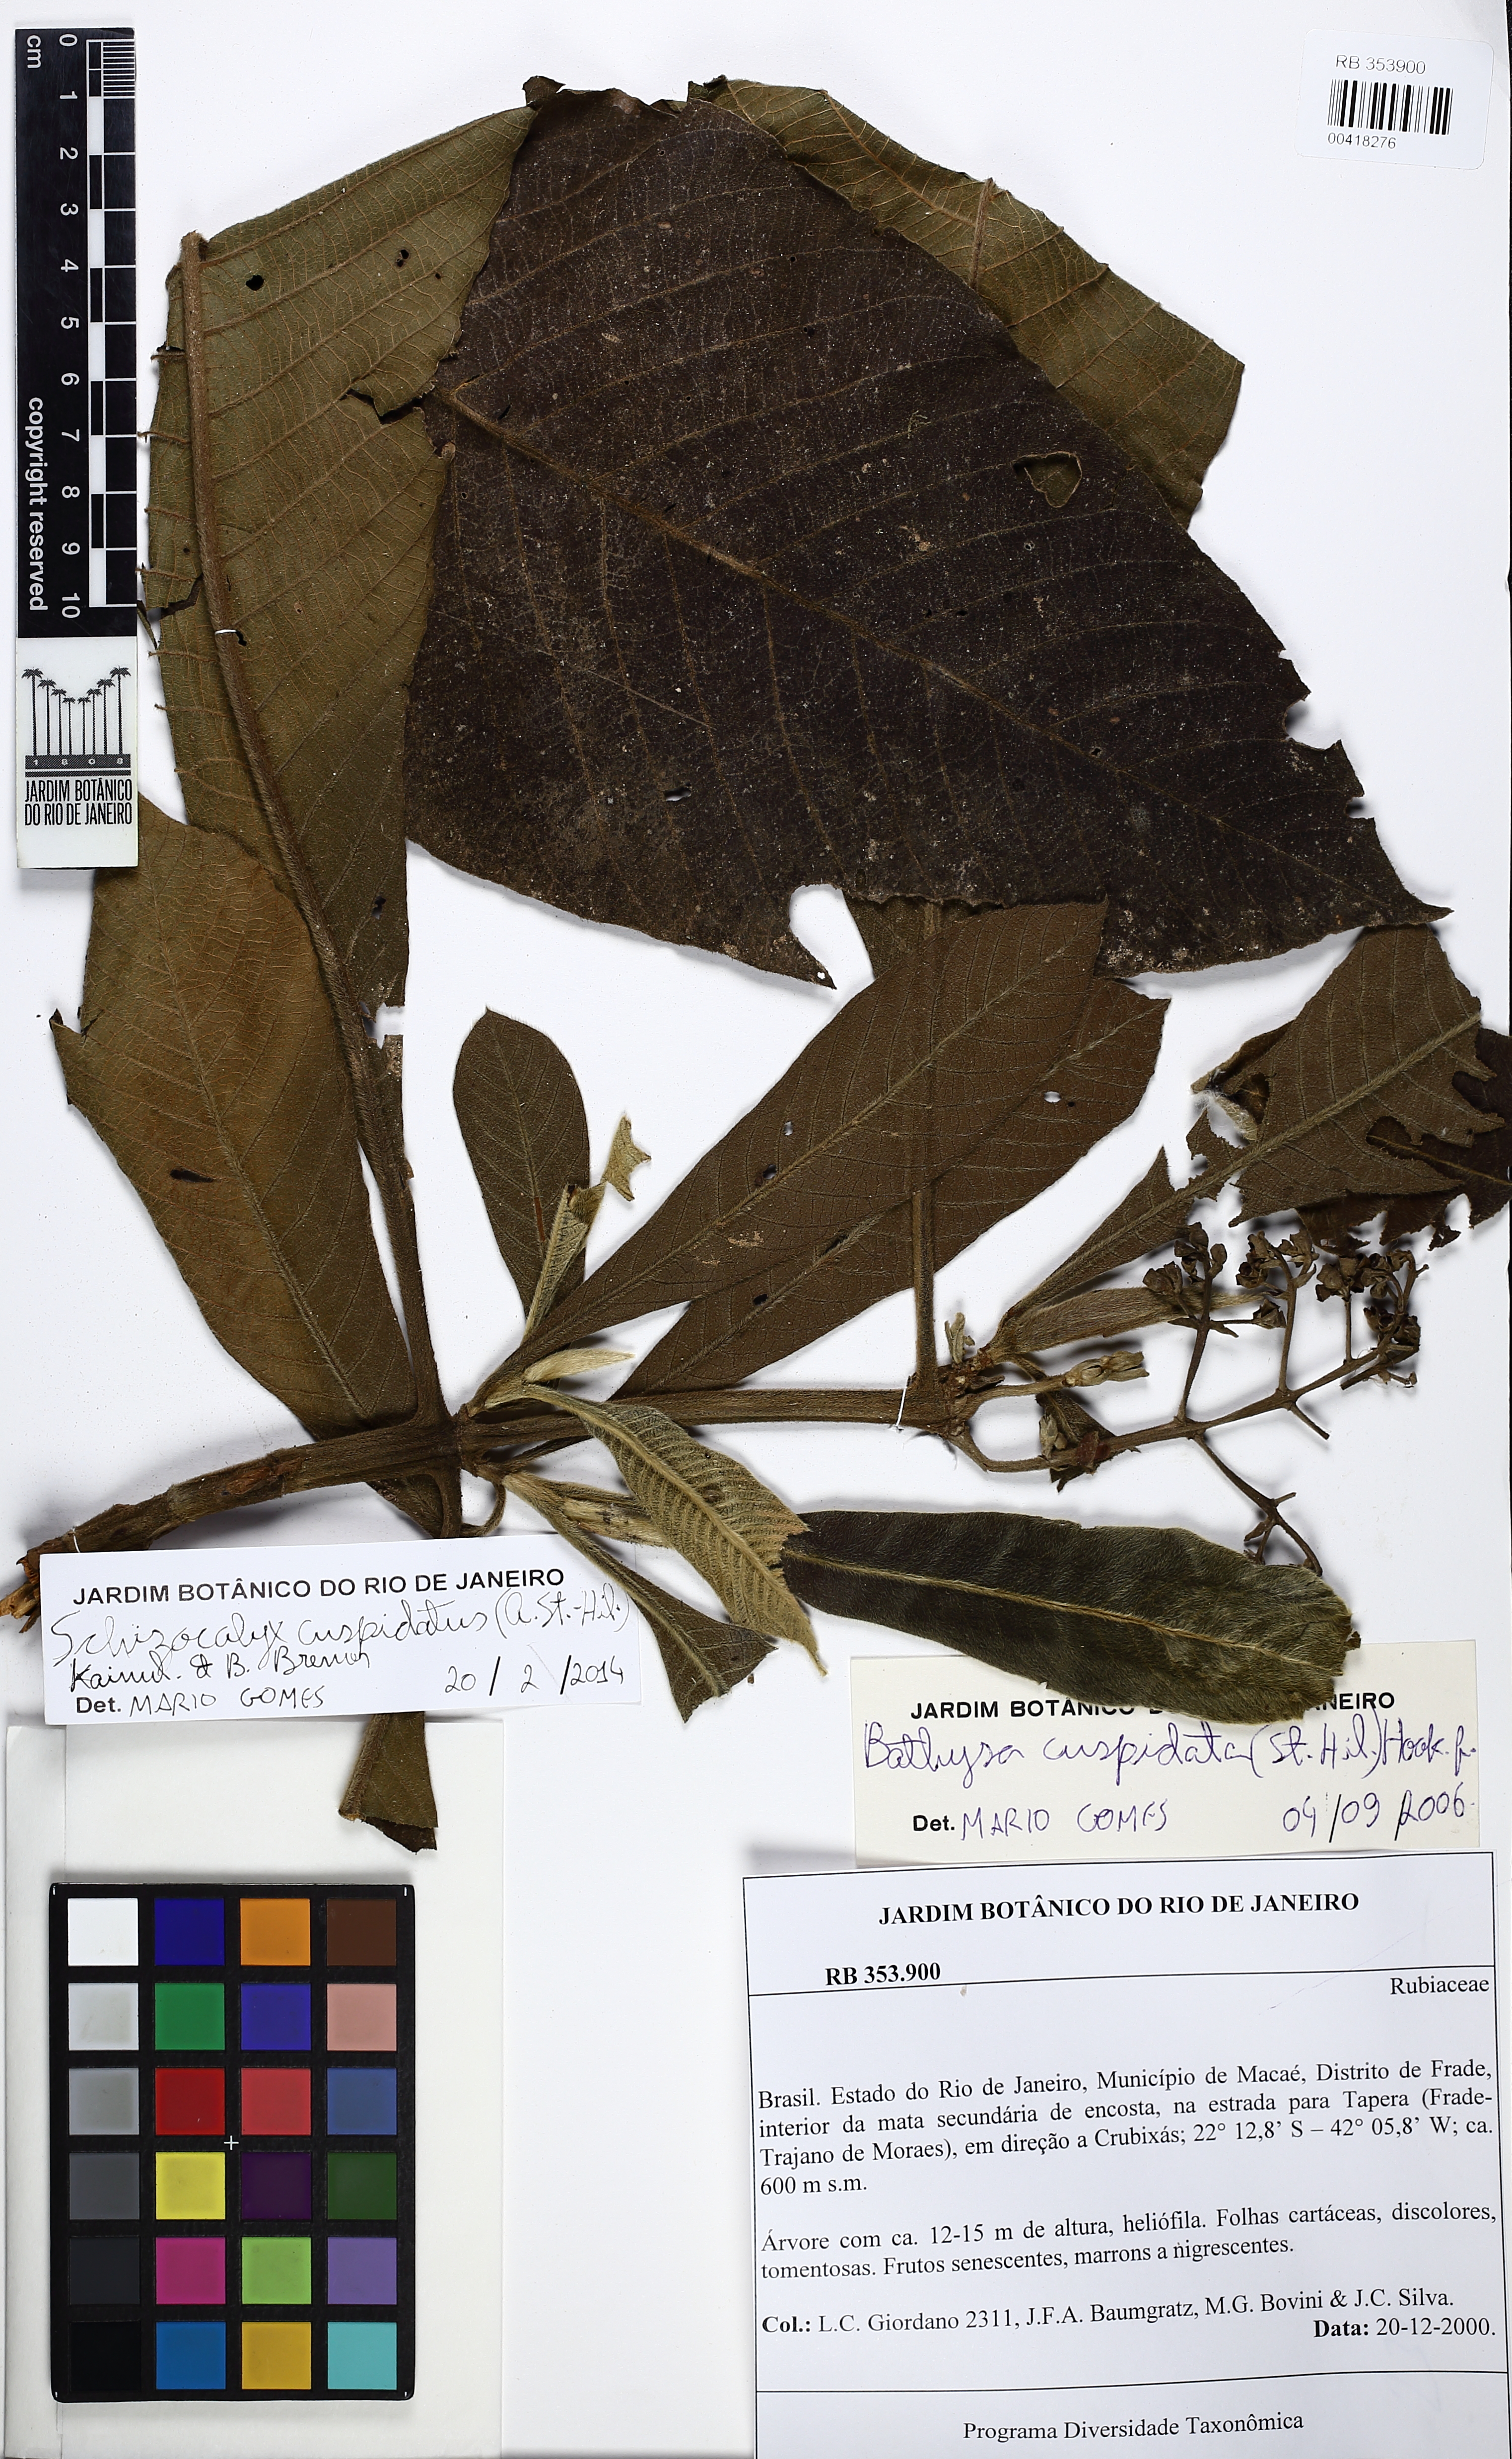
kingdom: Plantae
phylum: Tracheophyta
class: Magnoliopsida
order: Gentianales
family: Rubiaceae
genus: Schizocalyx
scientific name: Schizocalyx cuspidatus
